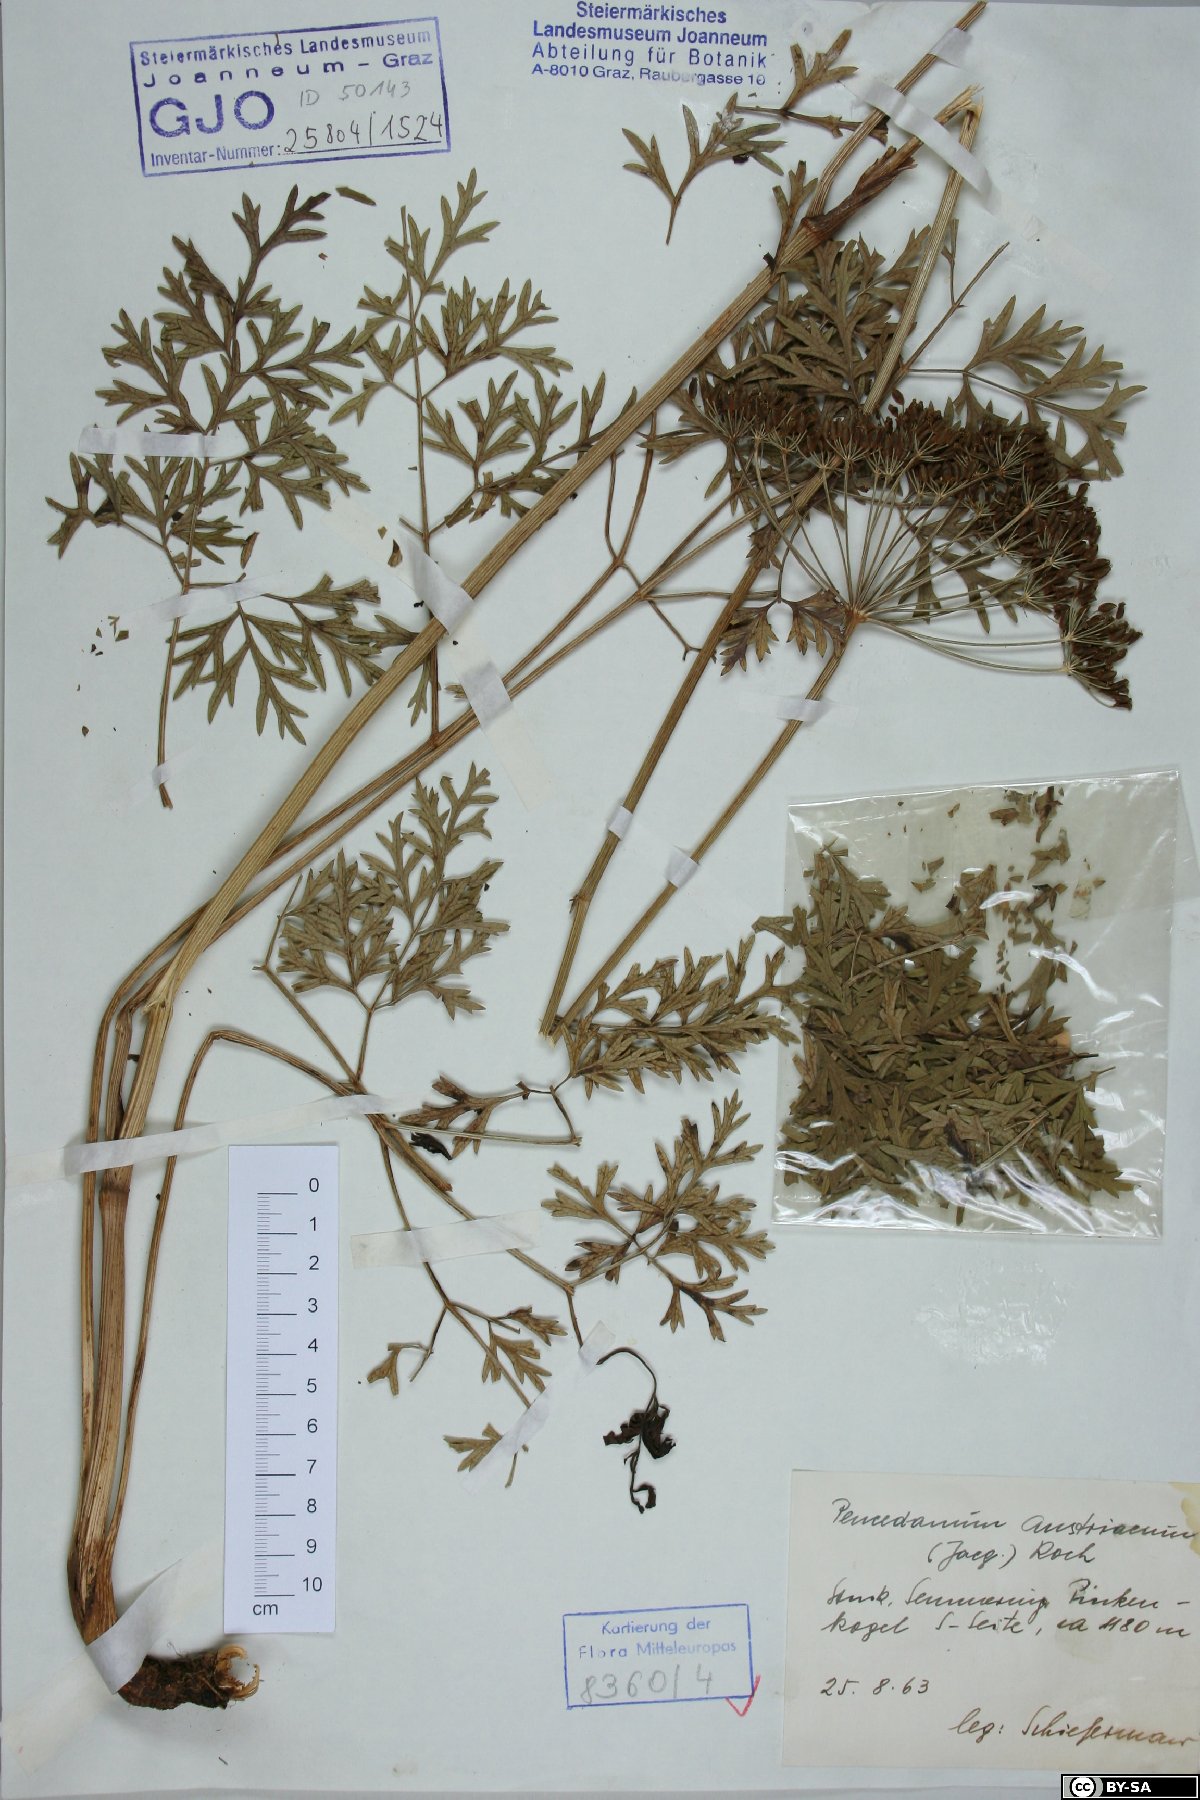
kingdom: Plantae
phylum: Tracheophyta
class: Magnoliopsida
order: Apiales
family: Apiaceae
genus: Peucedanum
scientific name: Peucedanum austriacum
